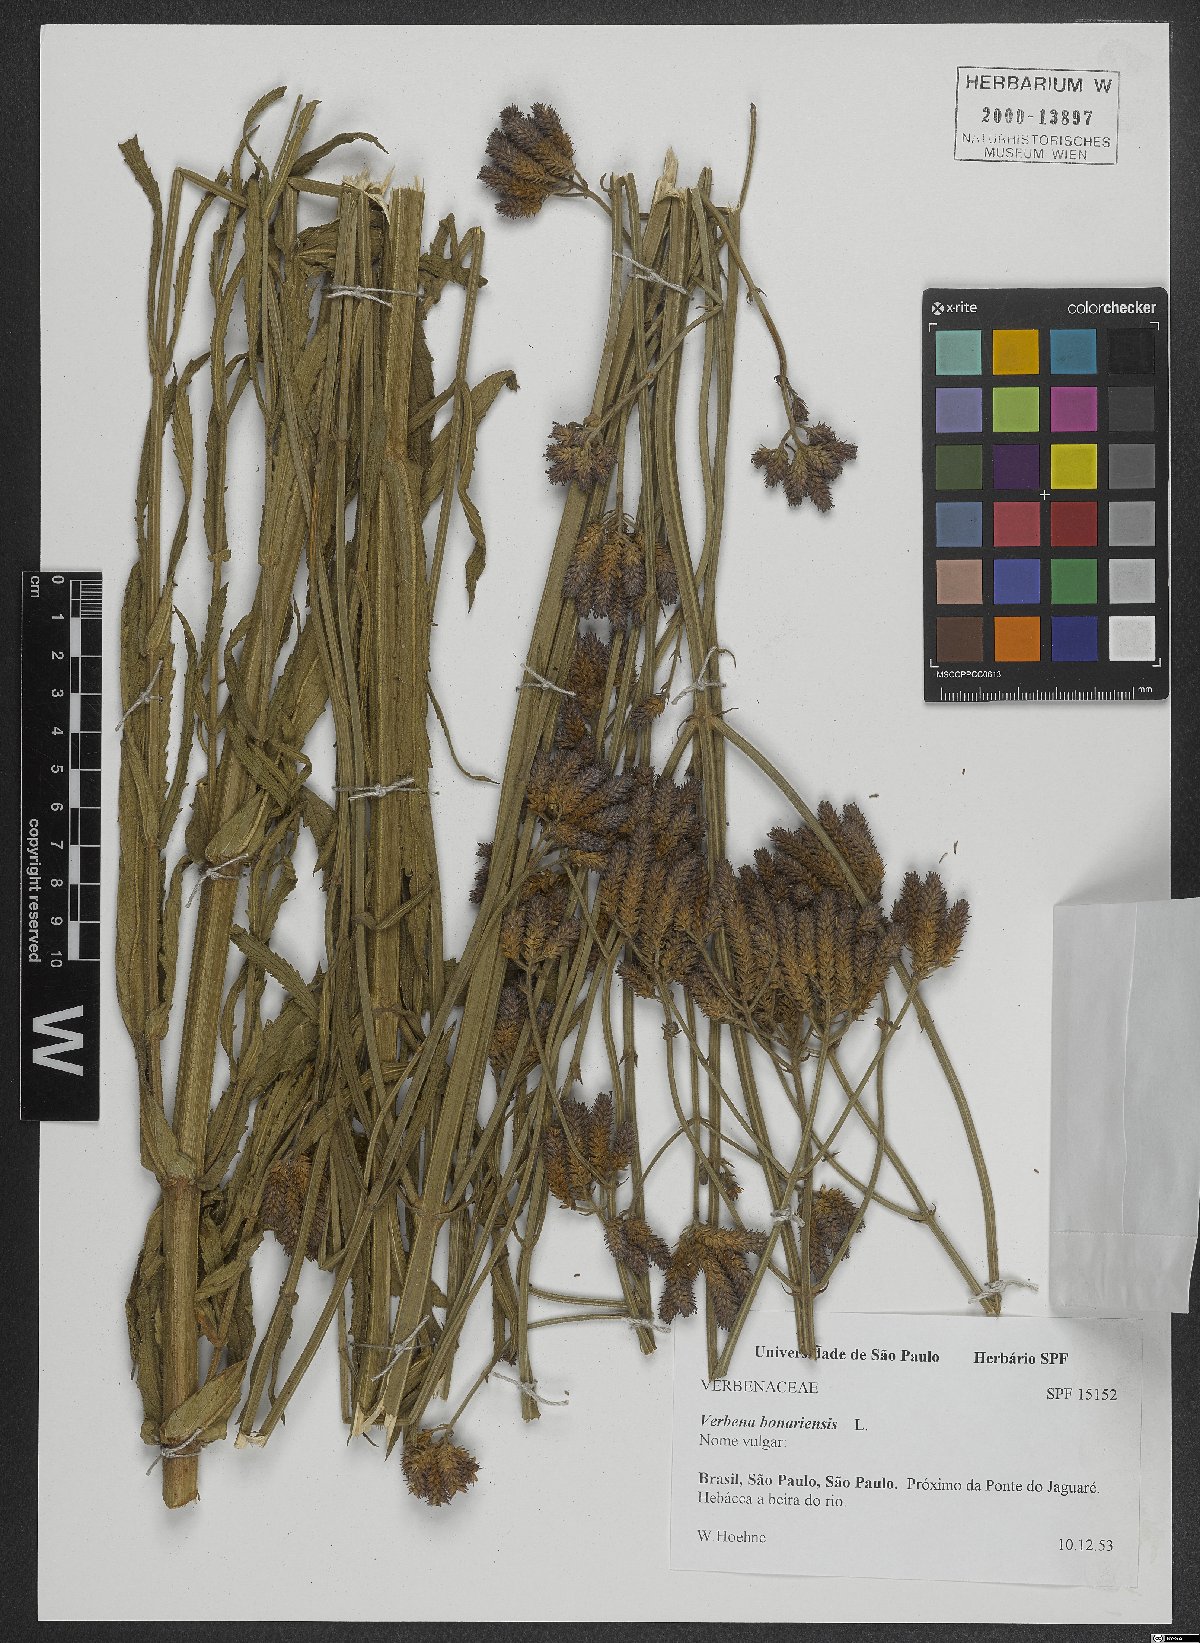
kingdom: Plantae
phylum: Tracheophyta
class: Magnoliopsida
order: Lamiales
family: Verbenaceae
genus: Verbena
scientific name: Verbena bonariensis
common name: Purpletop vervain
